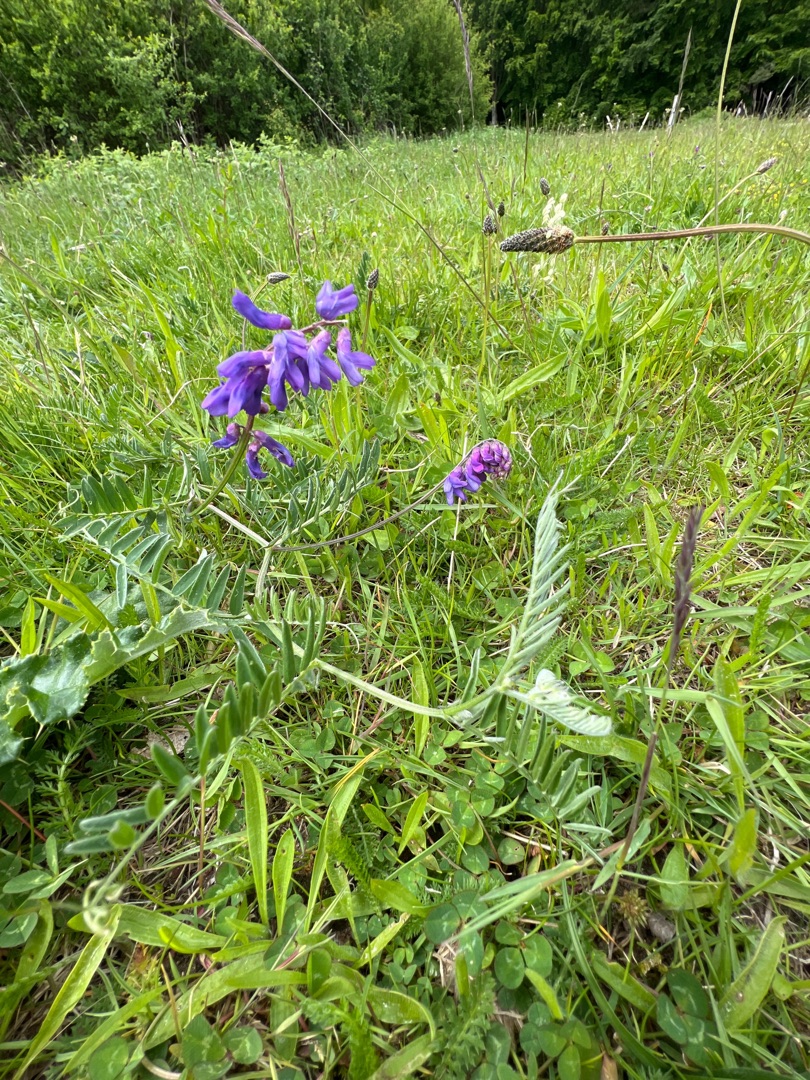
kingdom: Plantae
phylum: Tracheophyta
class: Magnoliopsida
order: Fabales
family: Fabaceae
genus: Vicia
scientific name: Vicia cracca
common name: Muse-vikke
